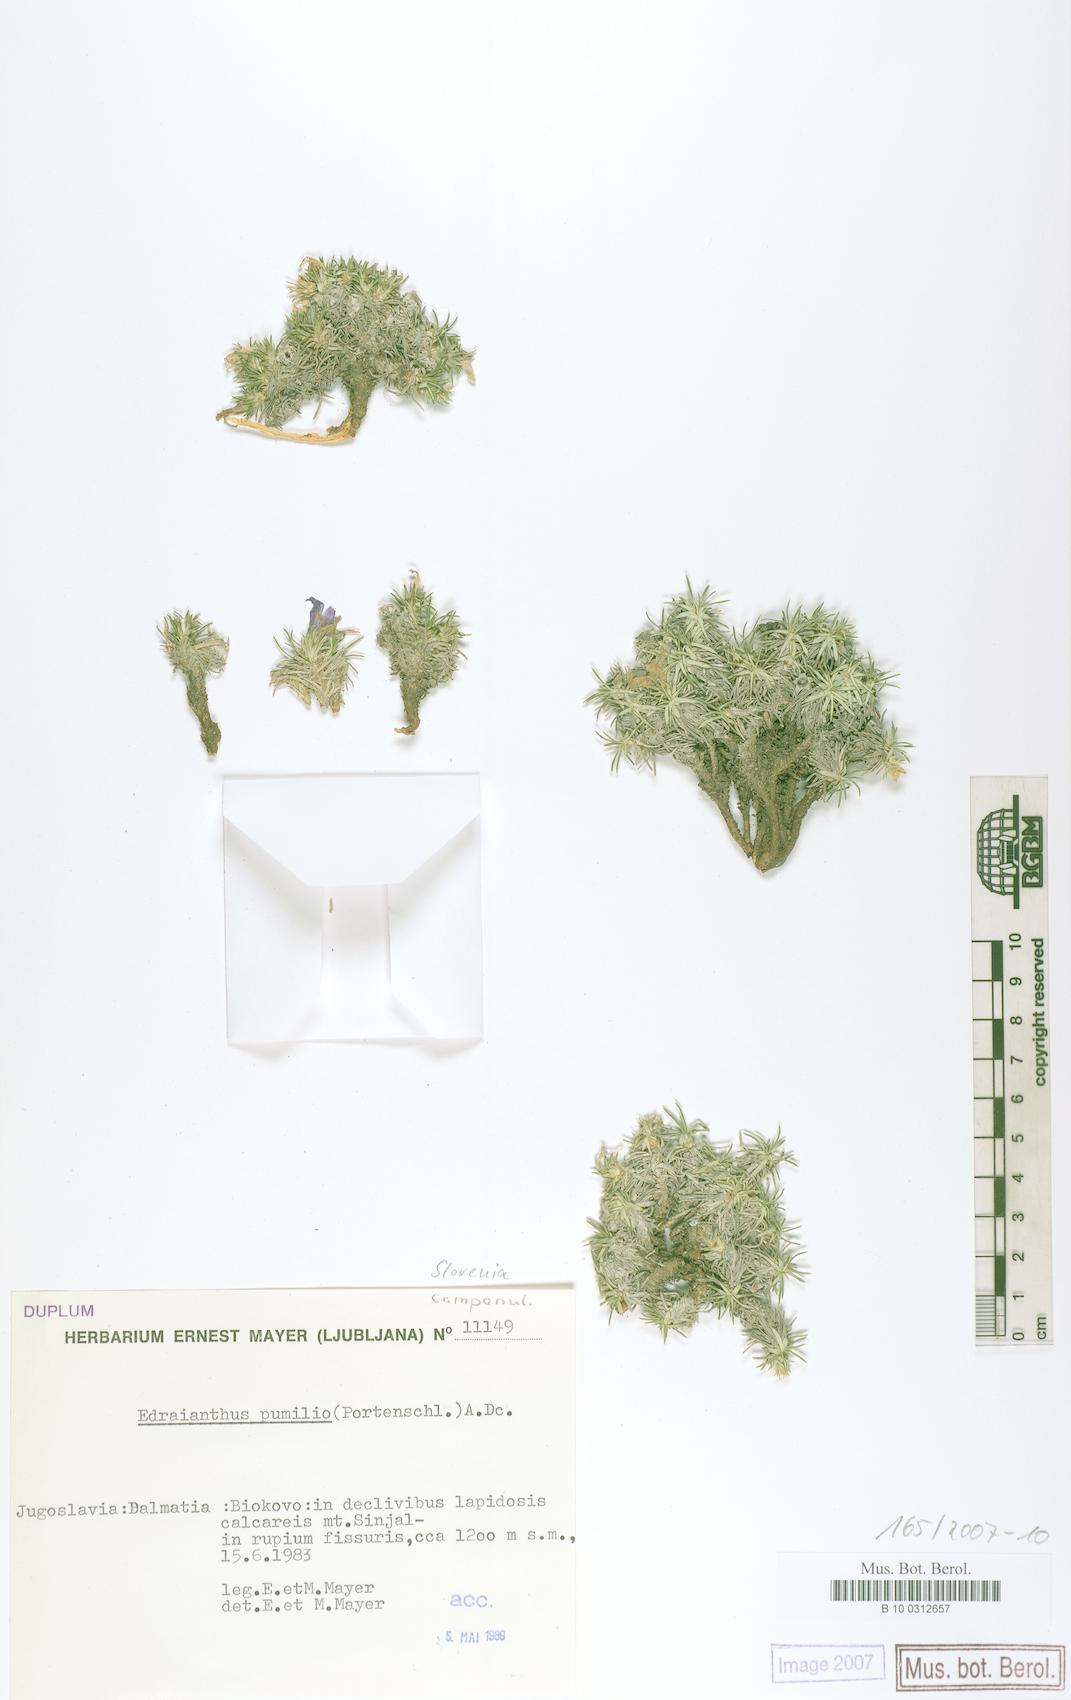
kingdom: Plantae
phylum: Tracheophyta
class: Magnoliopsida
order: Asterales
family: Campanulaceae
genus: Edraianthus
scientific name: Edraianthus pumilio
